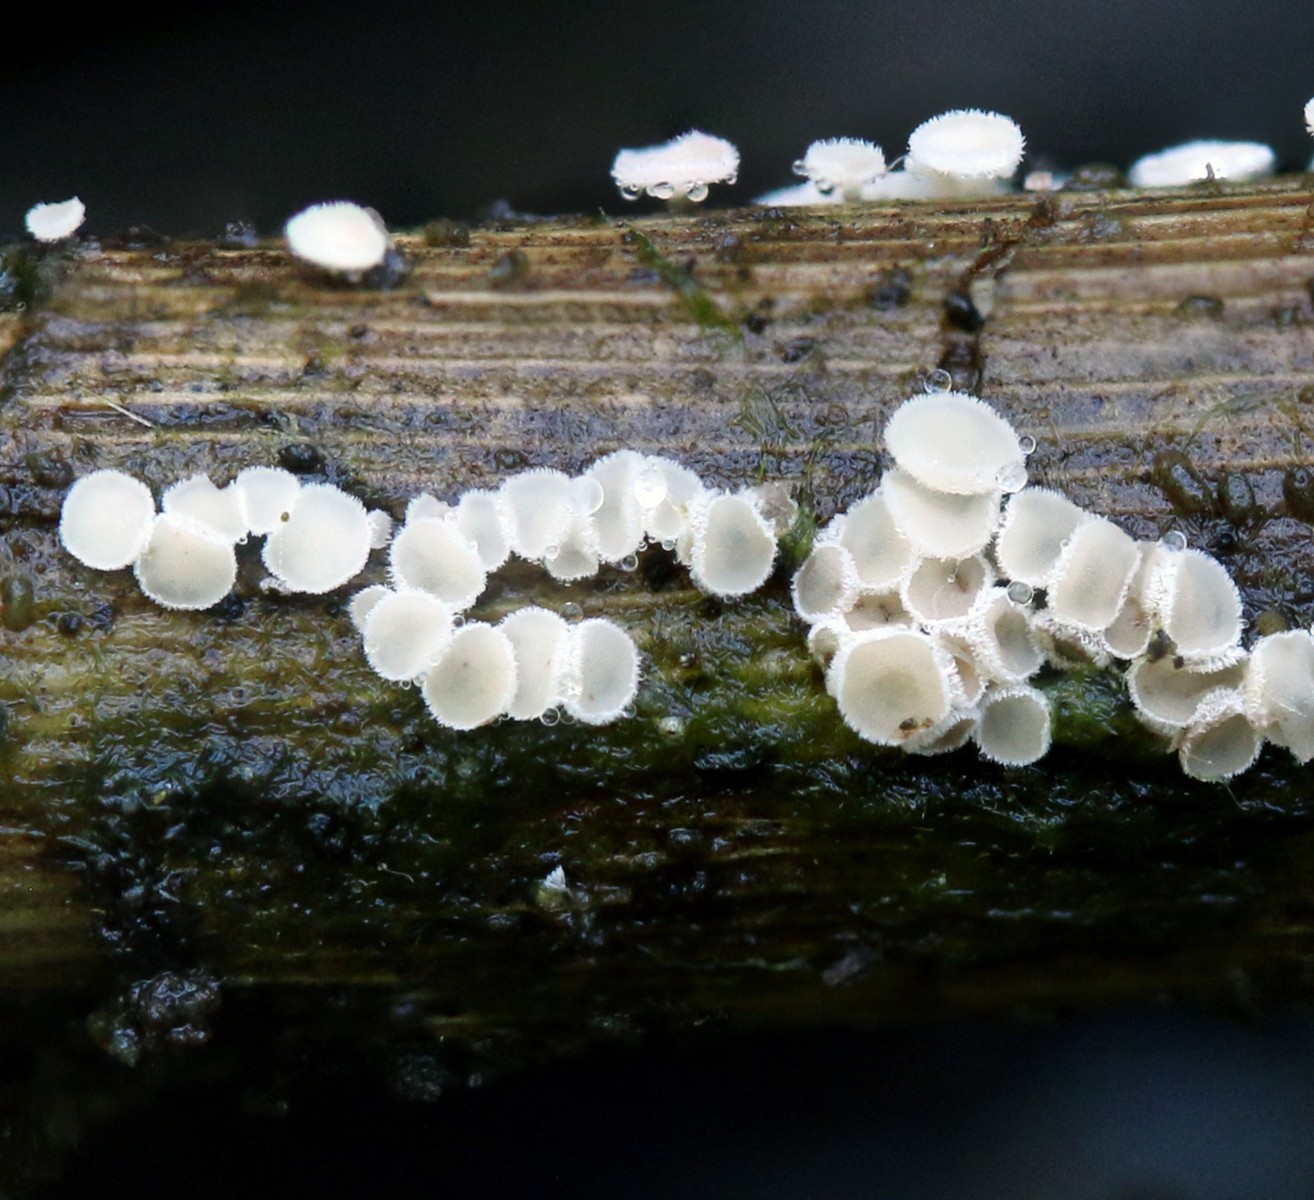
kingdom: Fungi
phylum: Ascomycota
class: Leotiomycetes
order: Helotiales
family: Lachnaceae
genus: Lachnum
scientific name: Lachnum controversum
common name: tagrør-frynseskive
